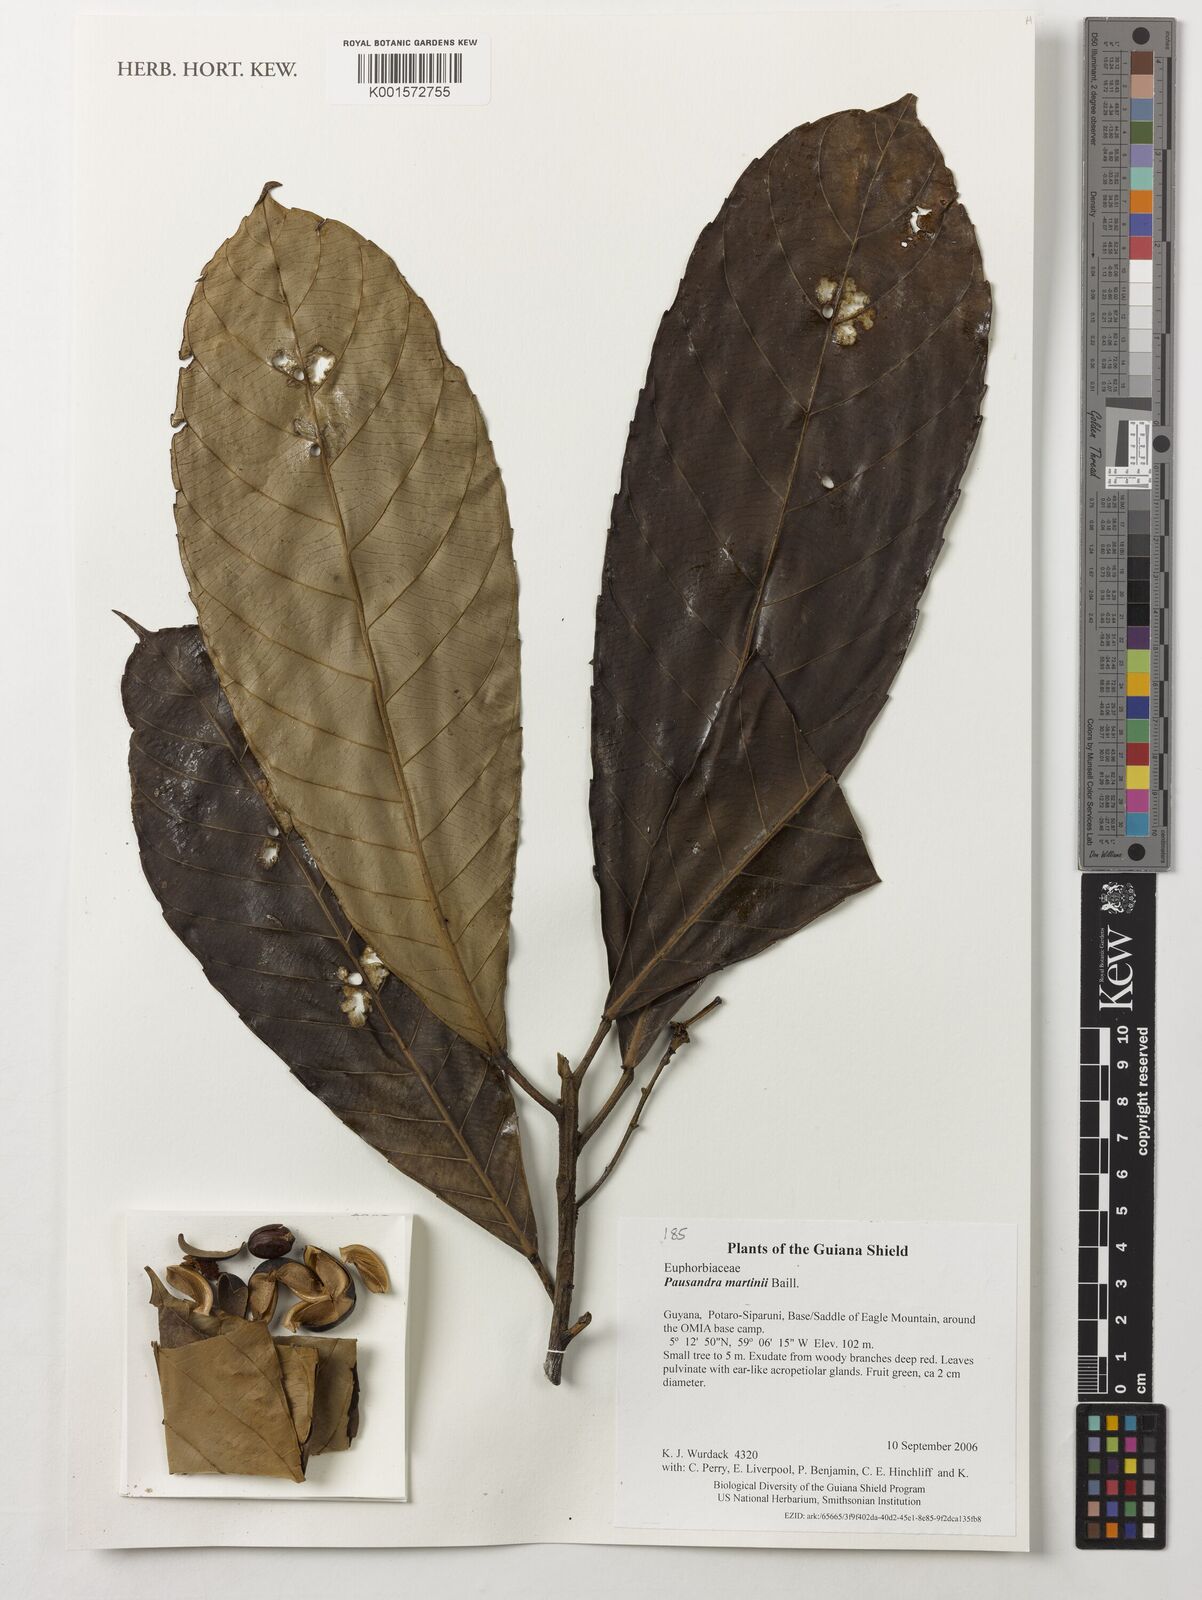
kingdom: Plantae
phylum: Tracheophyta
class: Magnoliopsida
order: Malpighiales
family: Euphorbiaceae
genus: Pausandra
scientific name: Pausandra martini
